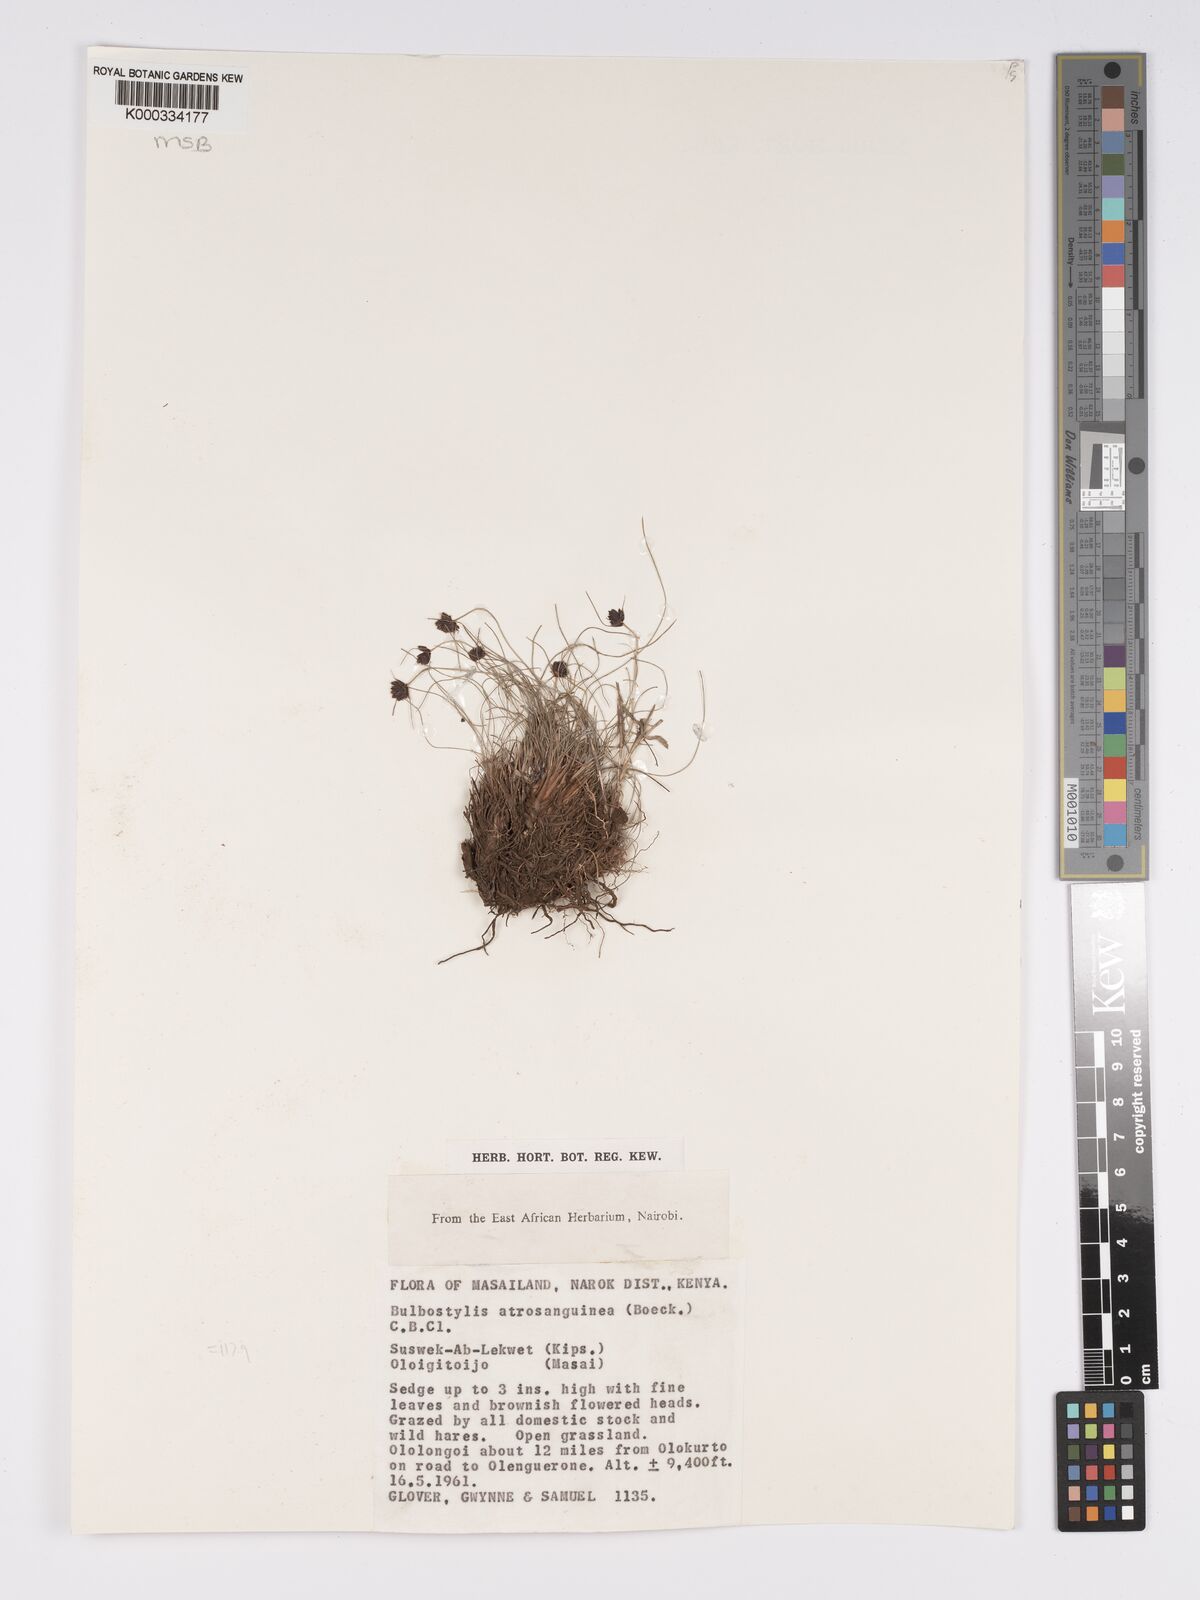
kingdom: Plantae
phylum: Tracheophyta
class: Liliopsida
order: Poales
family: Cyperaceae
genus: Bulbostylis
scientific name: Bulbostylis atrosanguinea
